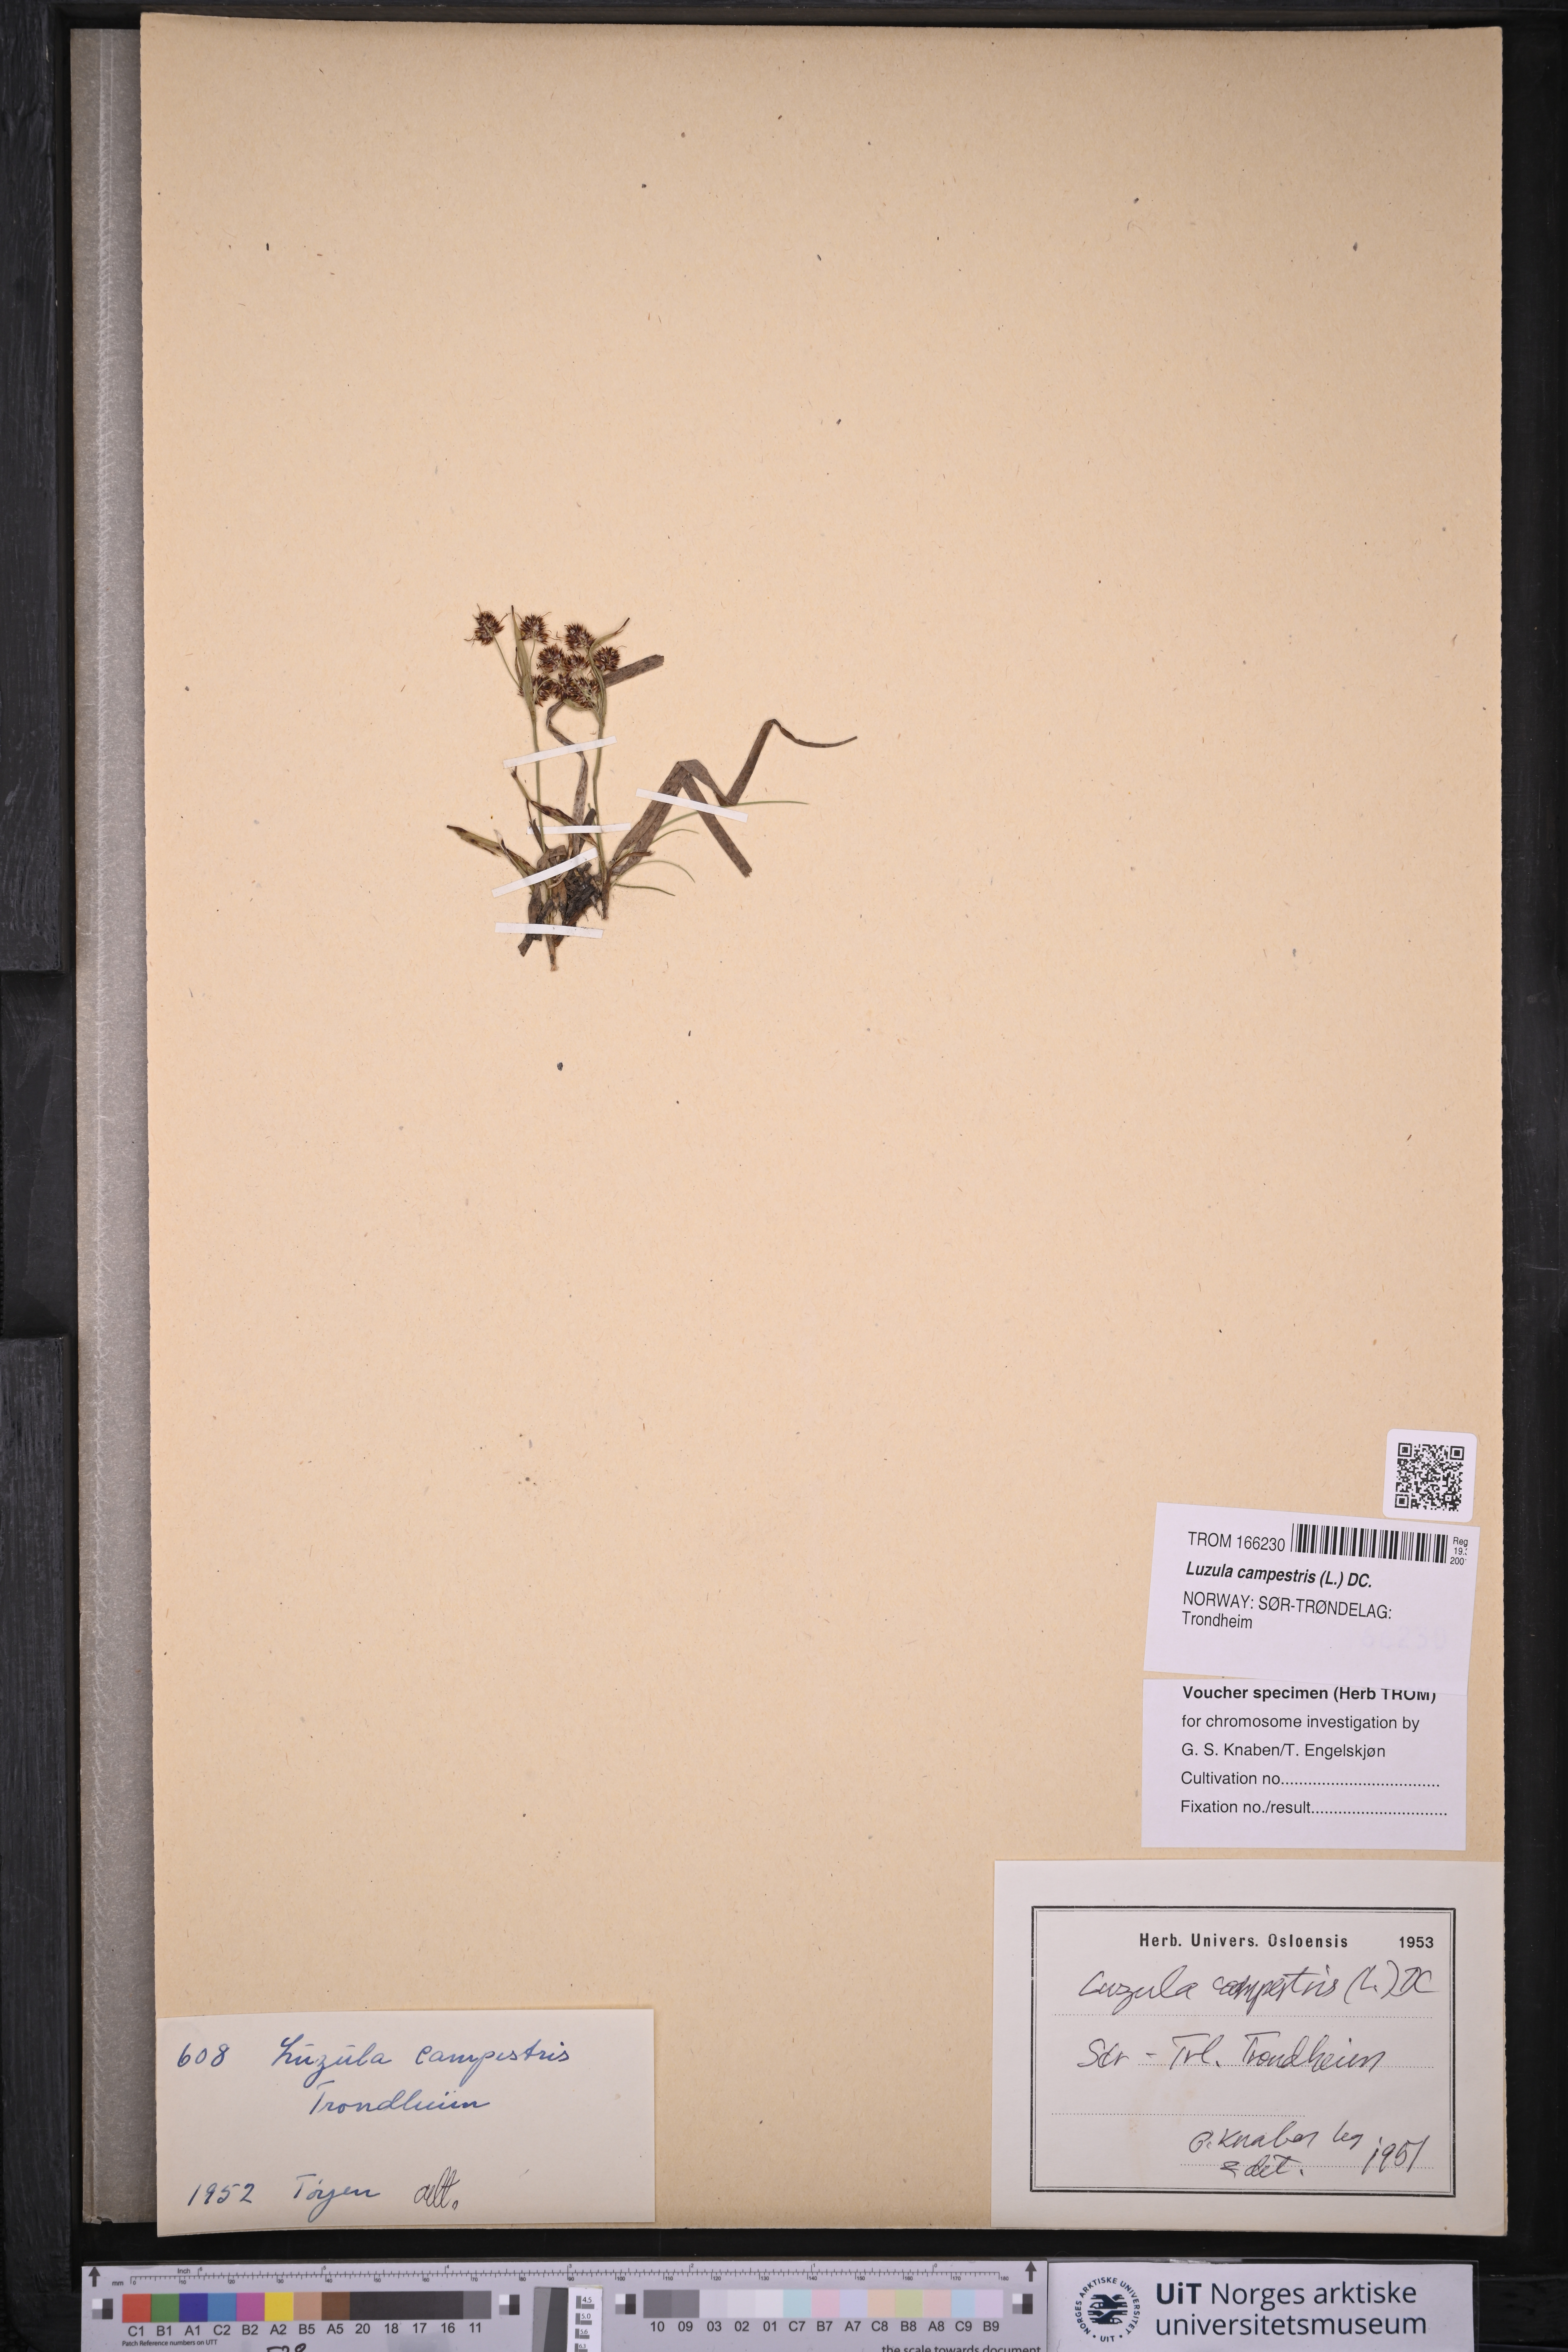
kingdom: Plantae
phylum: Tracheophyta
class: Liliopsida
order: Poales
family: Juncaceae
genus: Luzula
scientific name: Luzula campestris
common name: Field wood-rush
